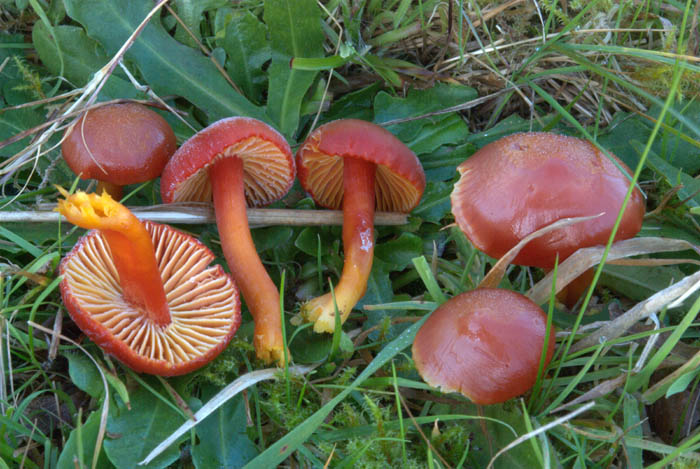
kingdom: Fungi
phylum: Basidiomycota
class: Agaricomycetes
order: Agaricales
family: Hygrophoraceae
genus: Hygrocybe
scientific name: Hygrocybe coccinea
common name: cinnober-vokshat
